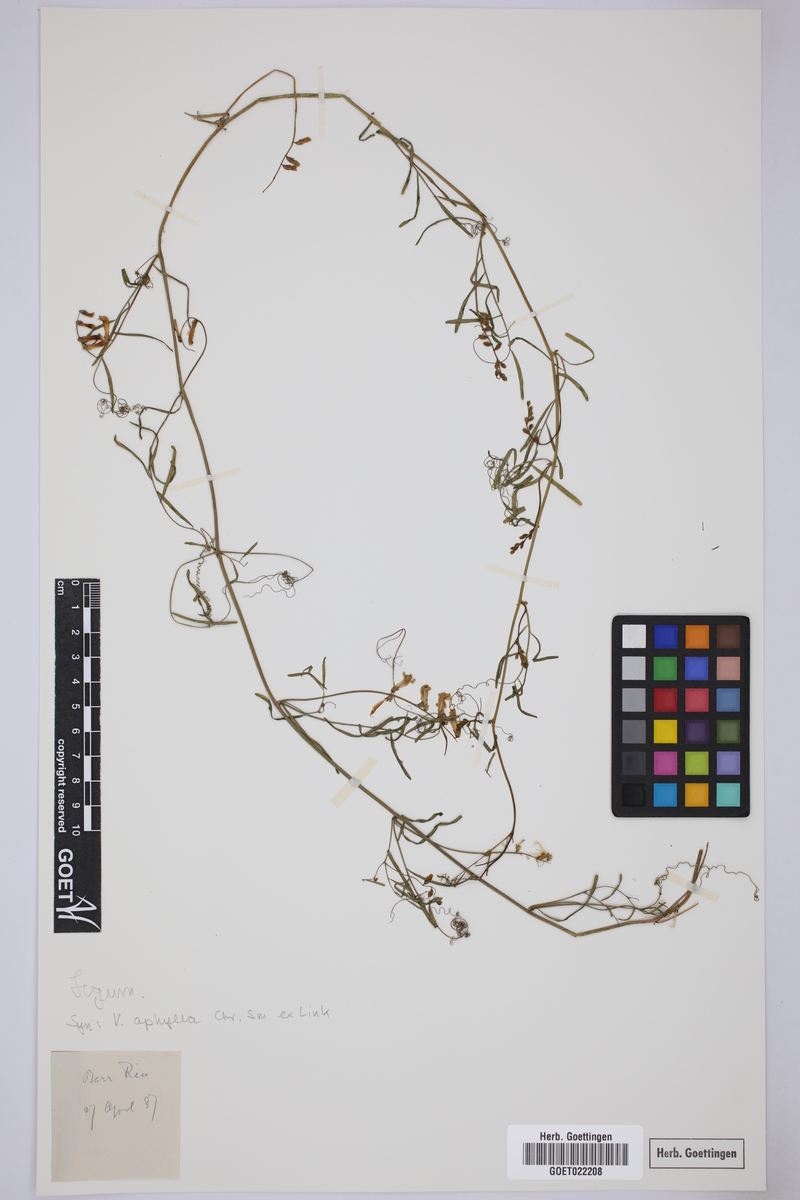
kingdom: Plantae
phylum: Tracheophyta
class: Magnoliopsida
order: Fabales
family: Fabaceae
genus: Vicia
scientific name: Vicia aphylla
